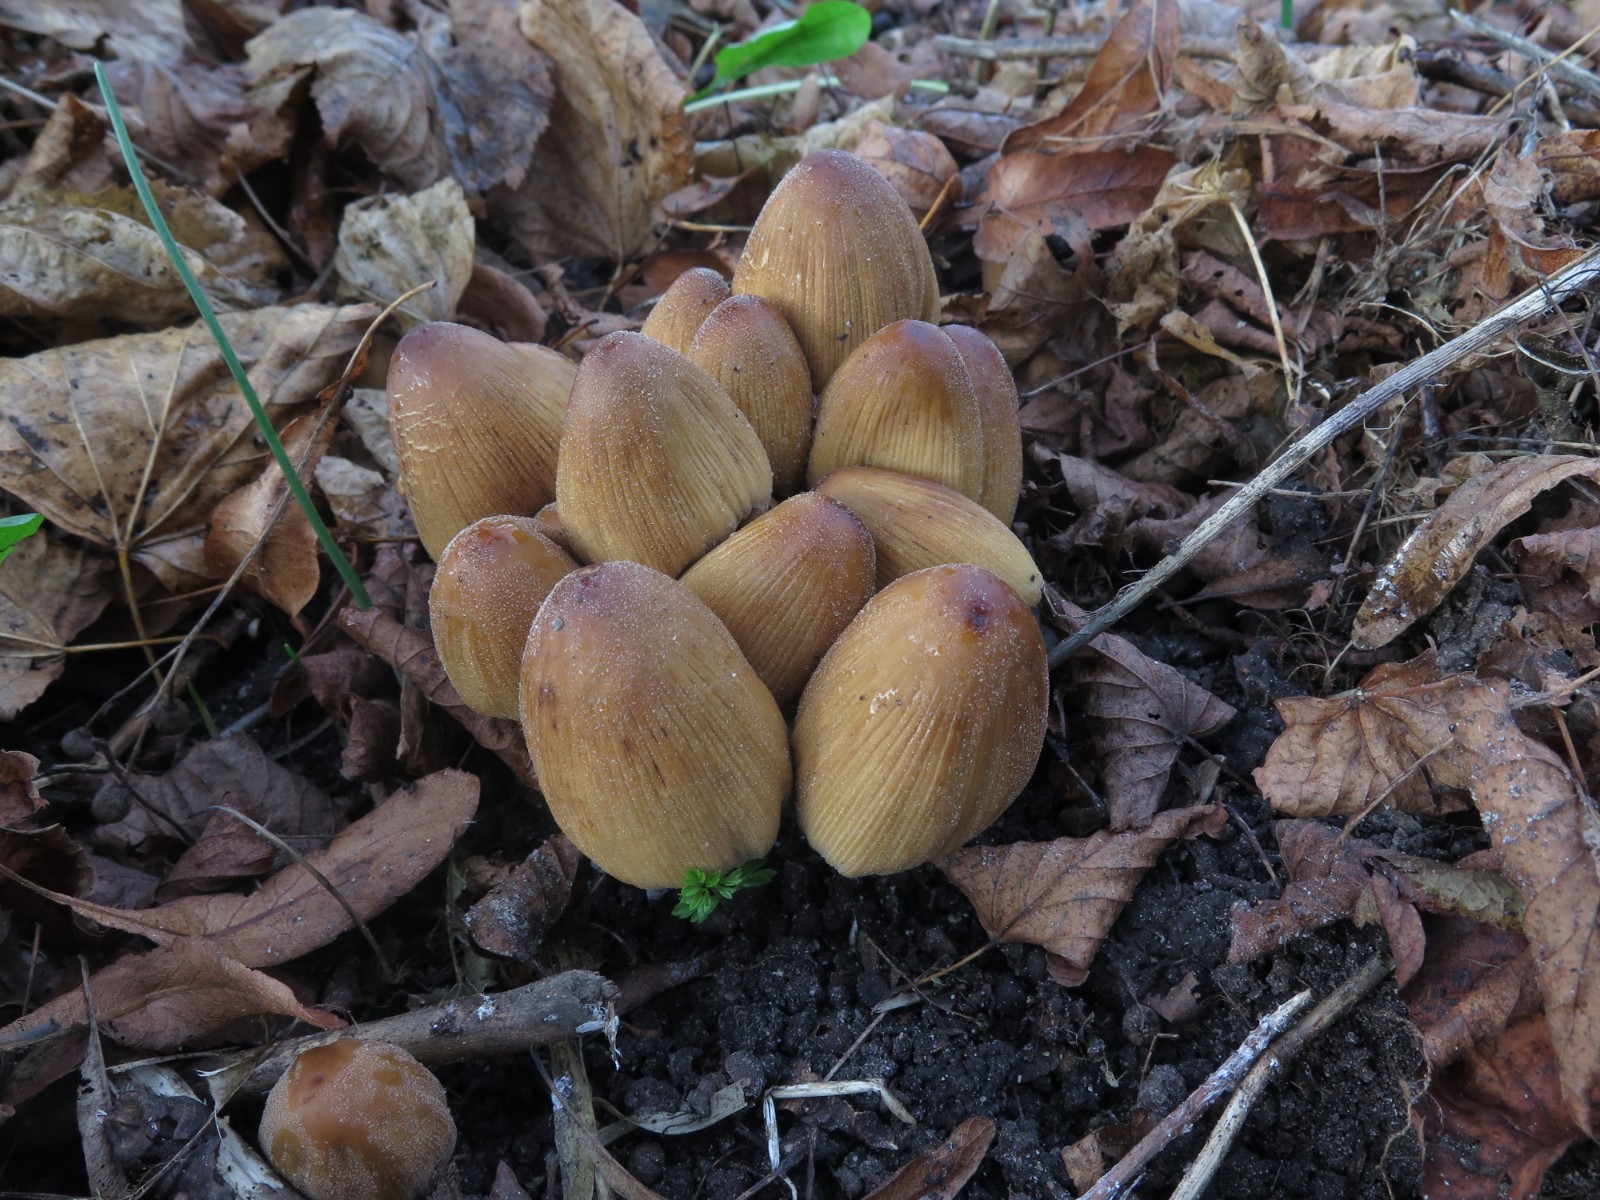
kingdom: Fungi
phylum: Basidiomycota
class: Agaricomycetes
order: Agaricales
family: Psathyrellaceae
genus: Coprinellus
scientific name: Coprinellus micaceus
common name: glimmer-blækhat
